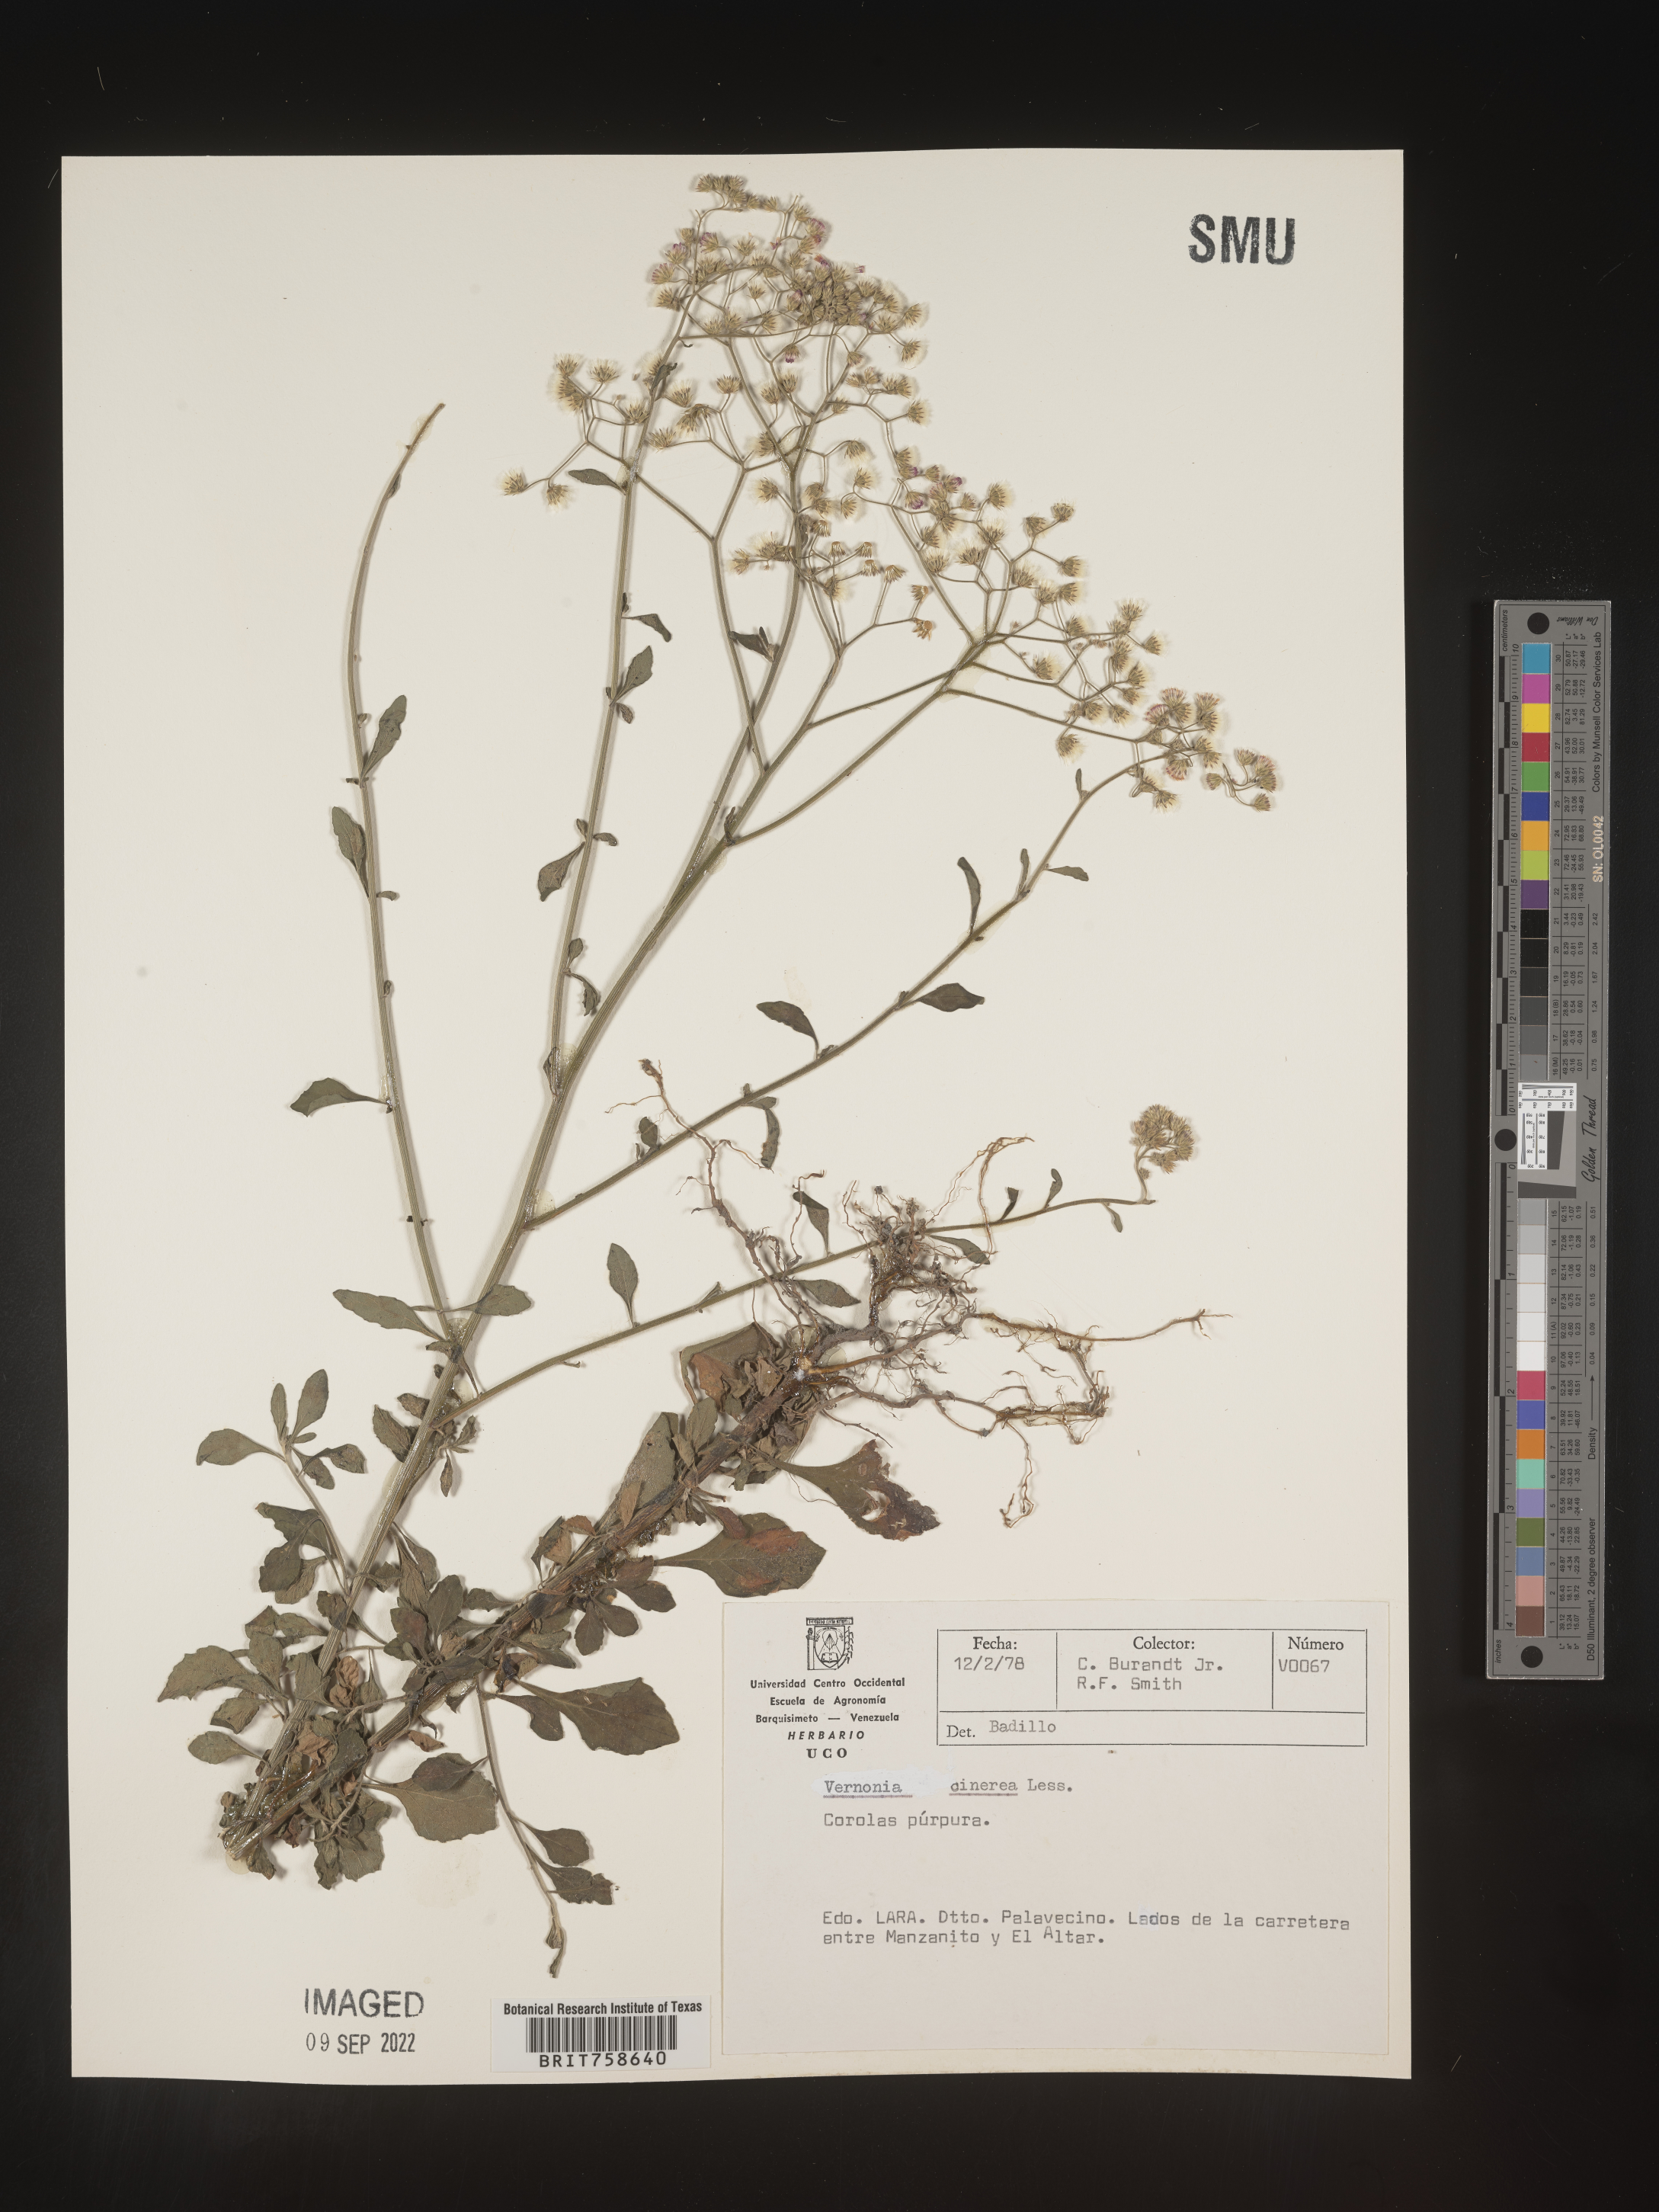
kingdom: Plantae
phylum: Tracheophyta
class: Magnoliopsida
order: Asterales
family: Asteraceae
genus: Vernonia
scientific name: Vernonia
